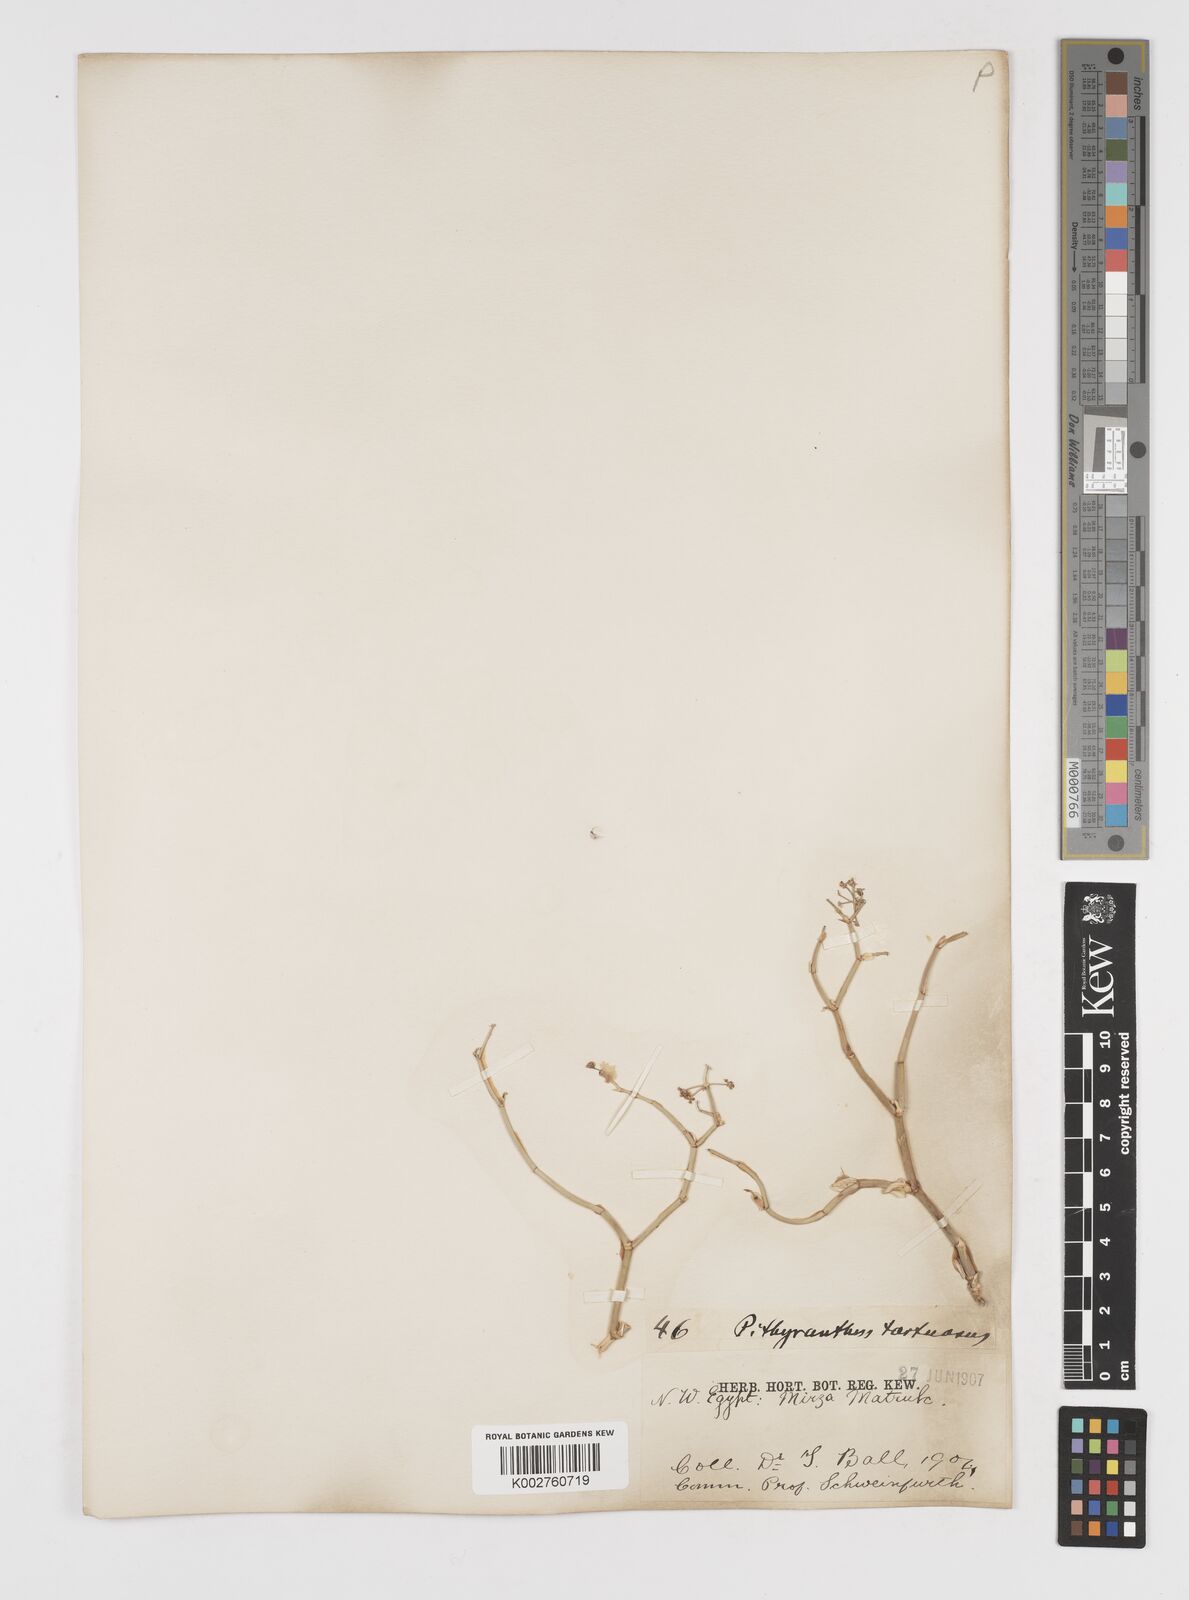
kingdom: Plantae
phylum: Tracheophyta
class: Magnoliopsida
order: Apiales
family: Apiaceae
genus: Deverra
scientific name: Deverra tortuosa
